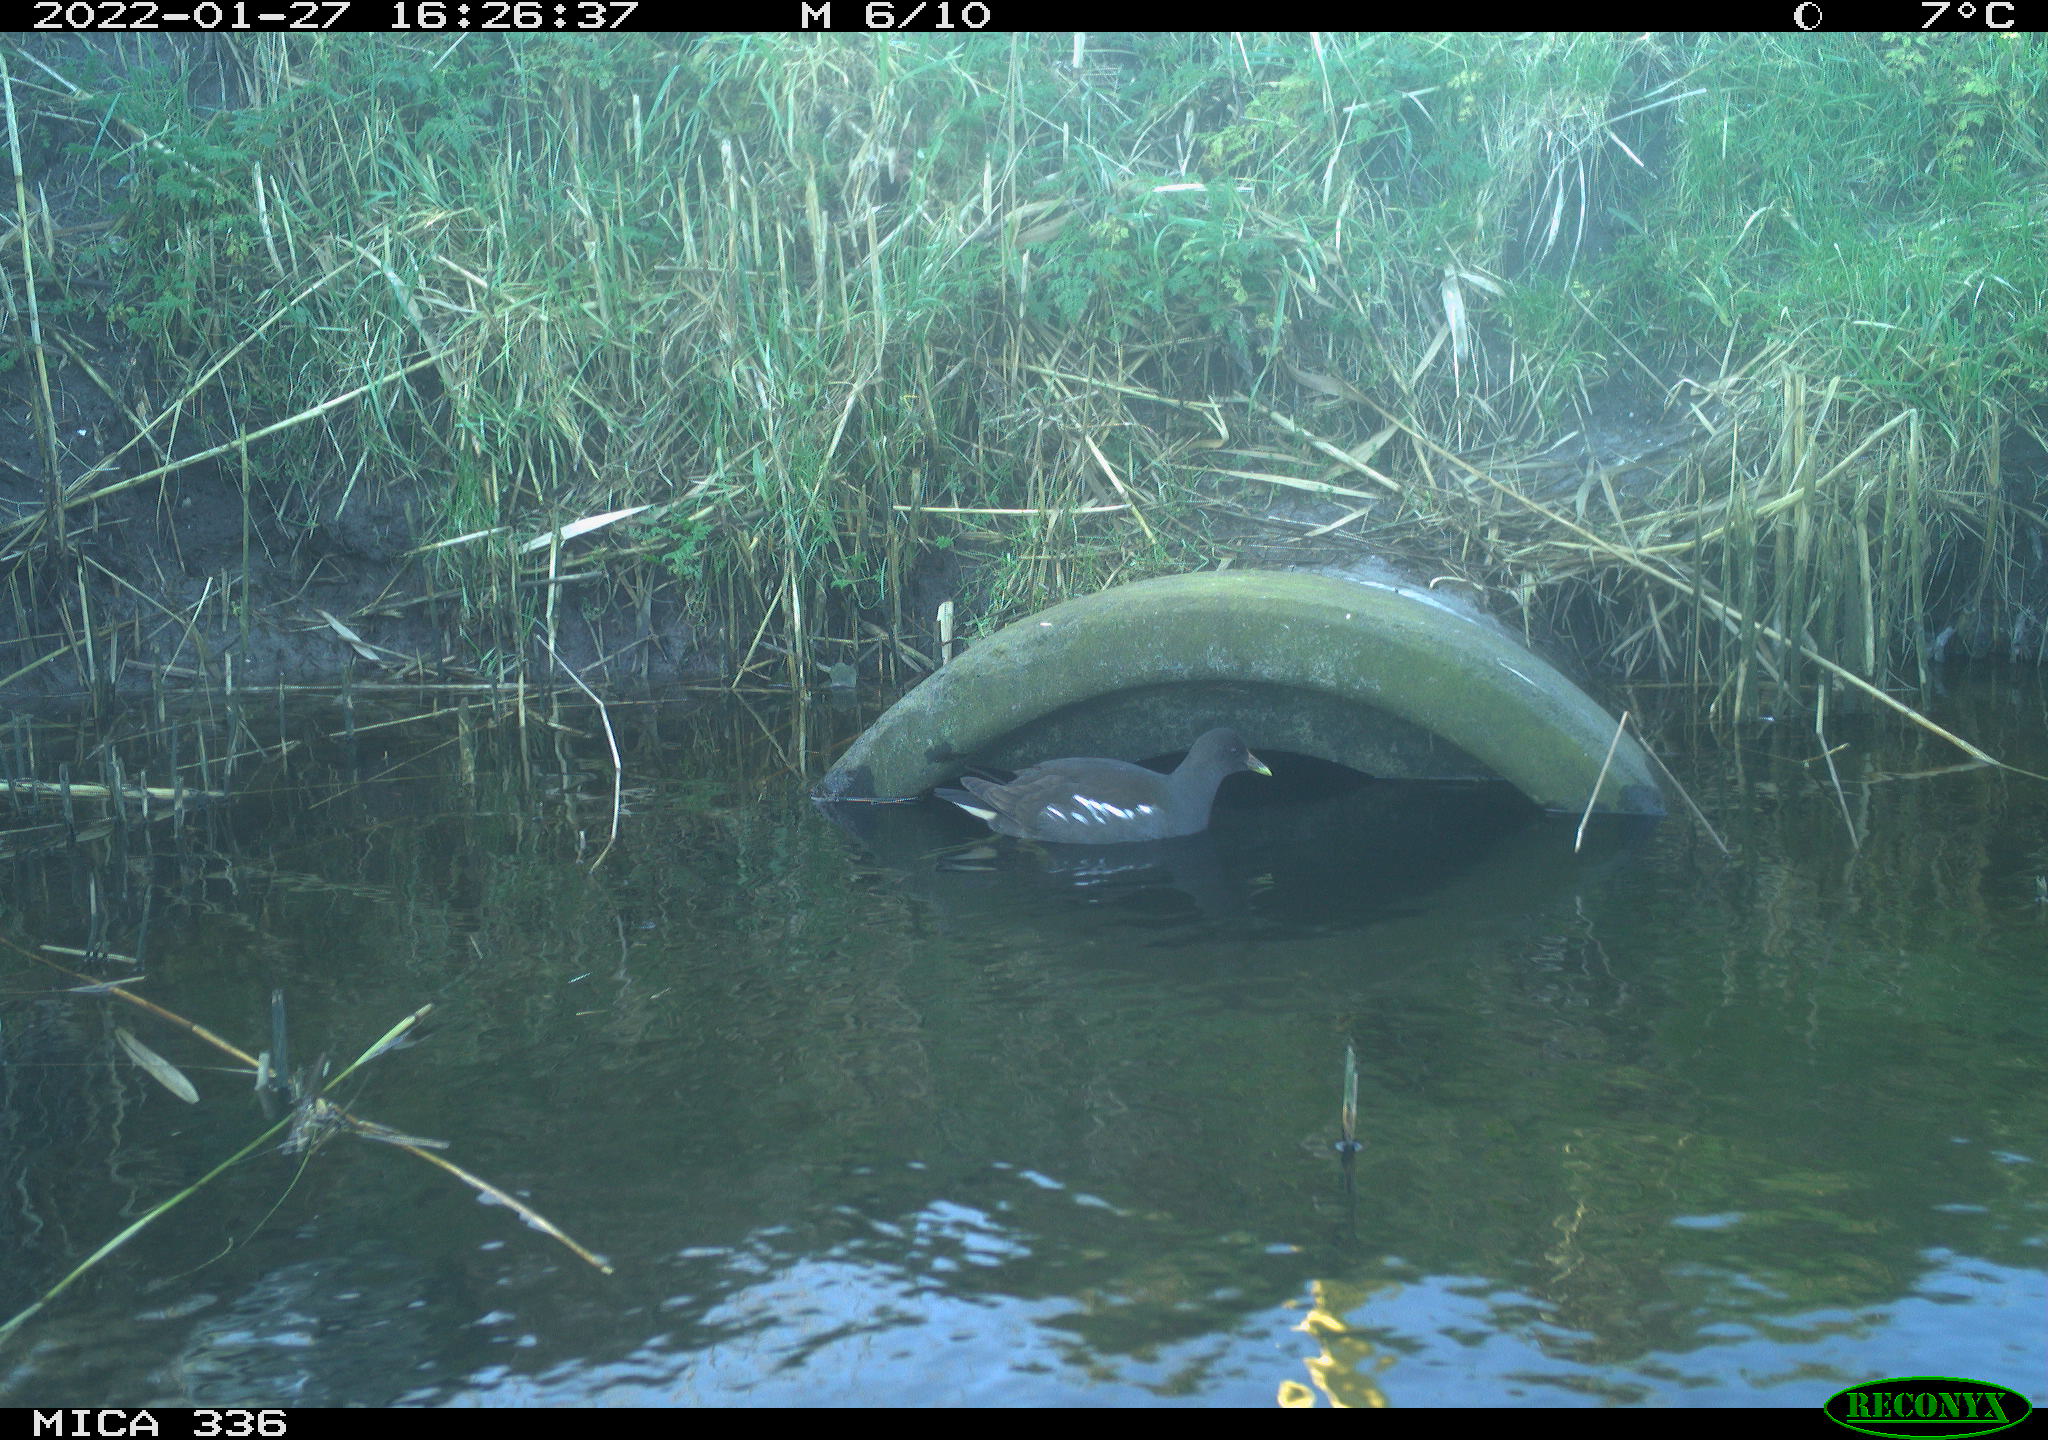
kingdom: Animalia
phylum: Chordata
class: Aves
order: Gruiformes
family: Rallidae
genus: Gallinula
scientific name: Gallinula chloropus
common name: Common moorhen
